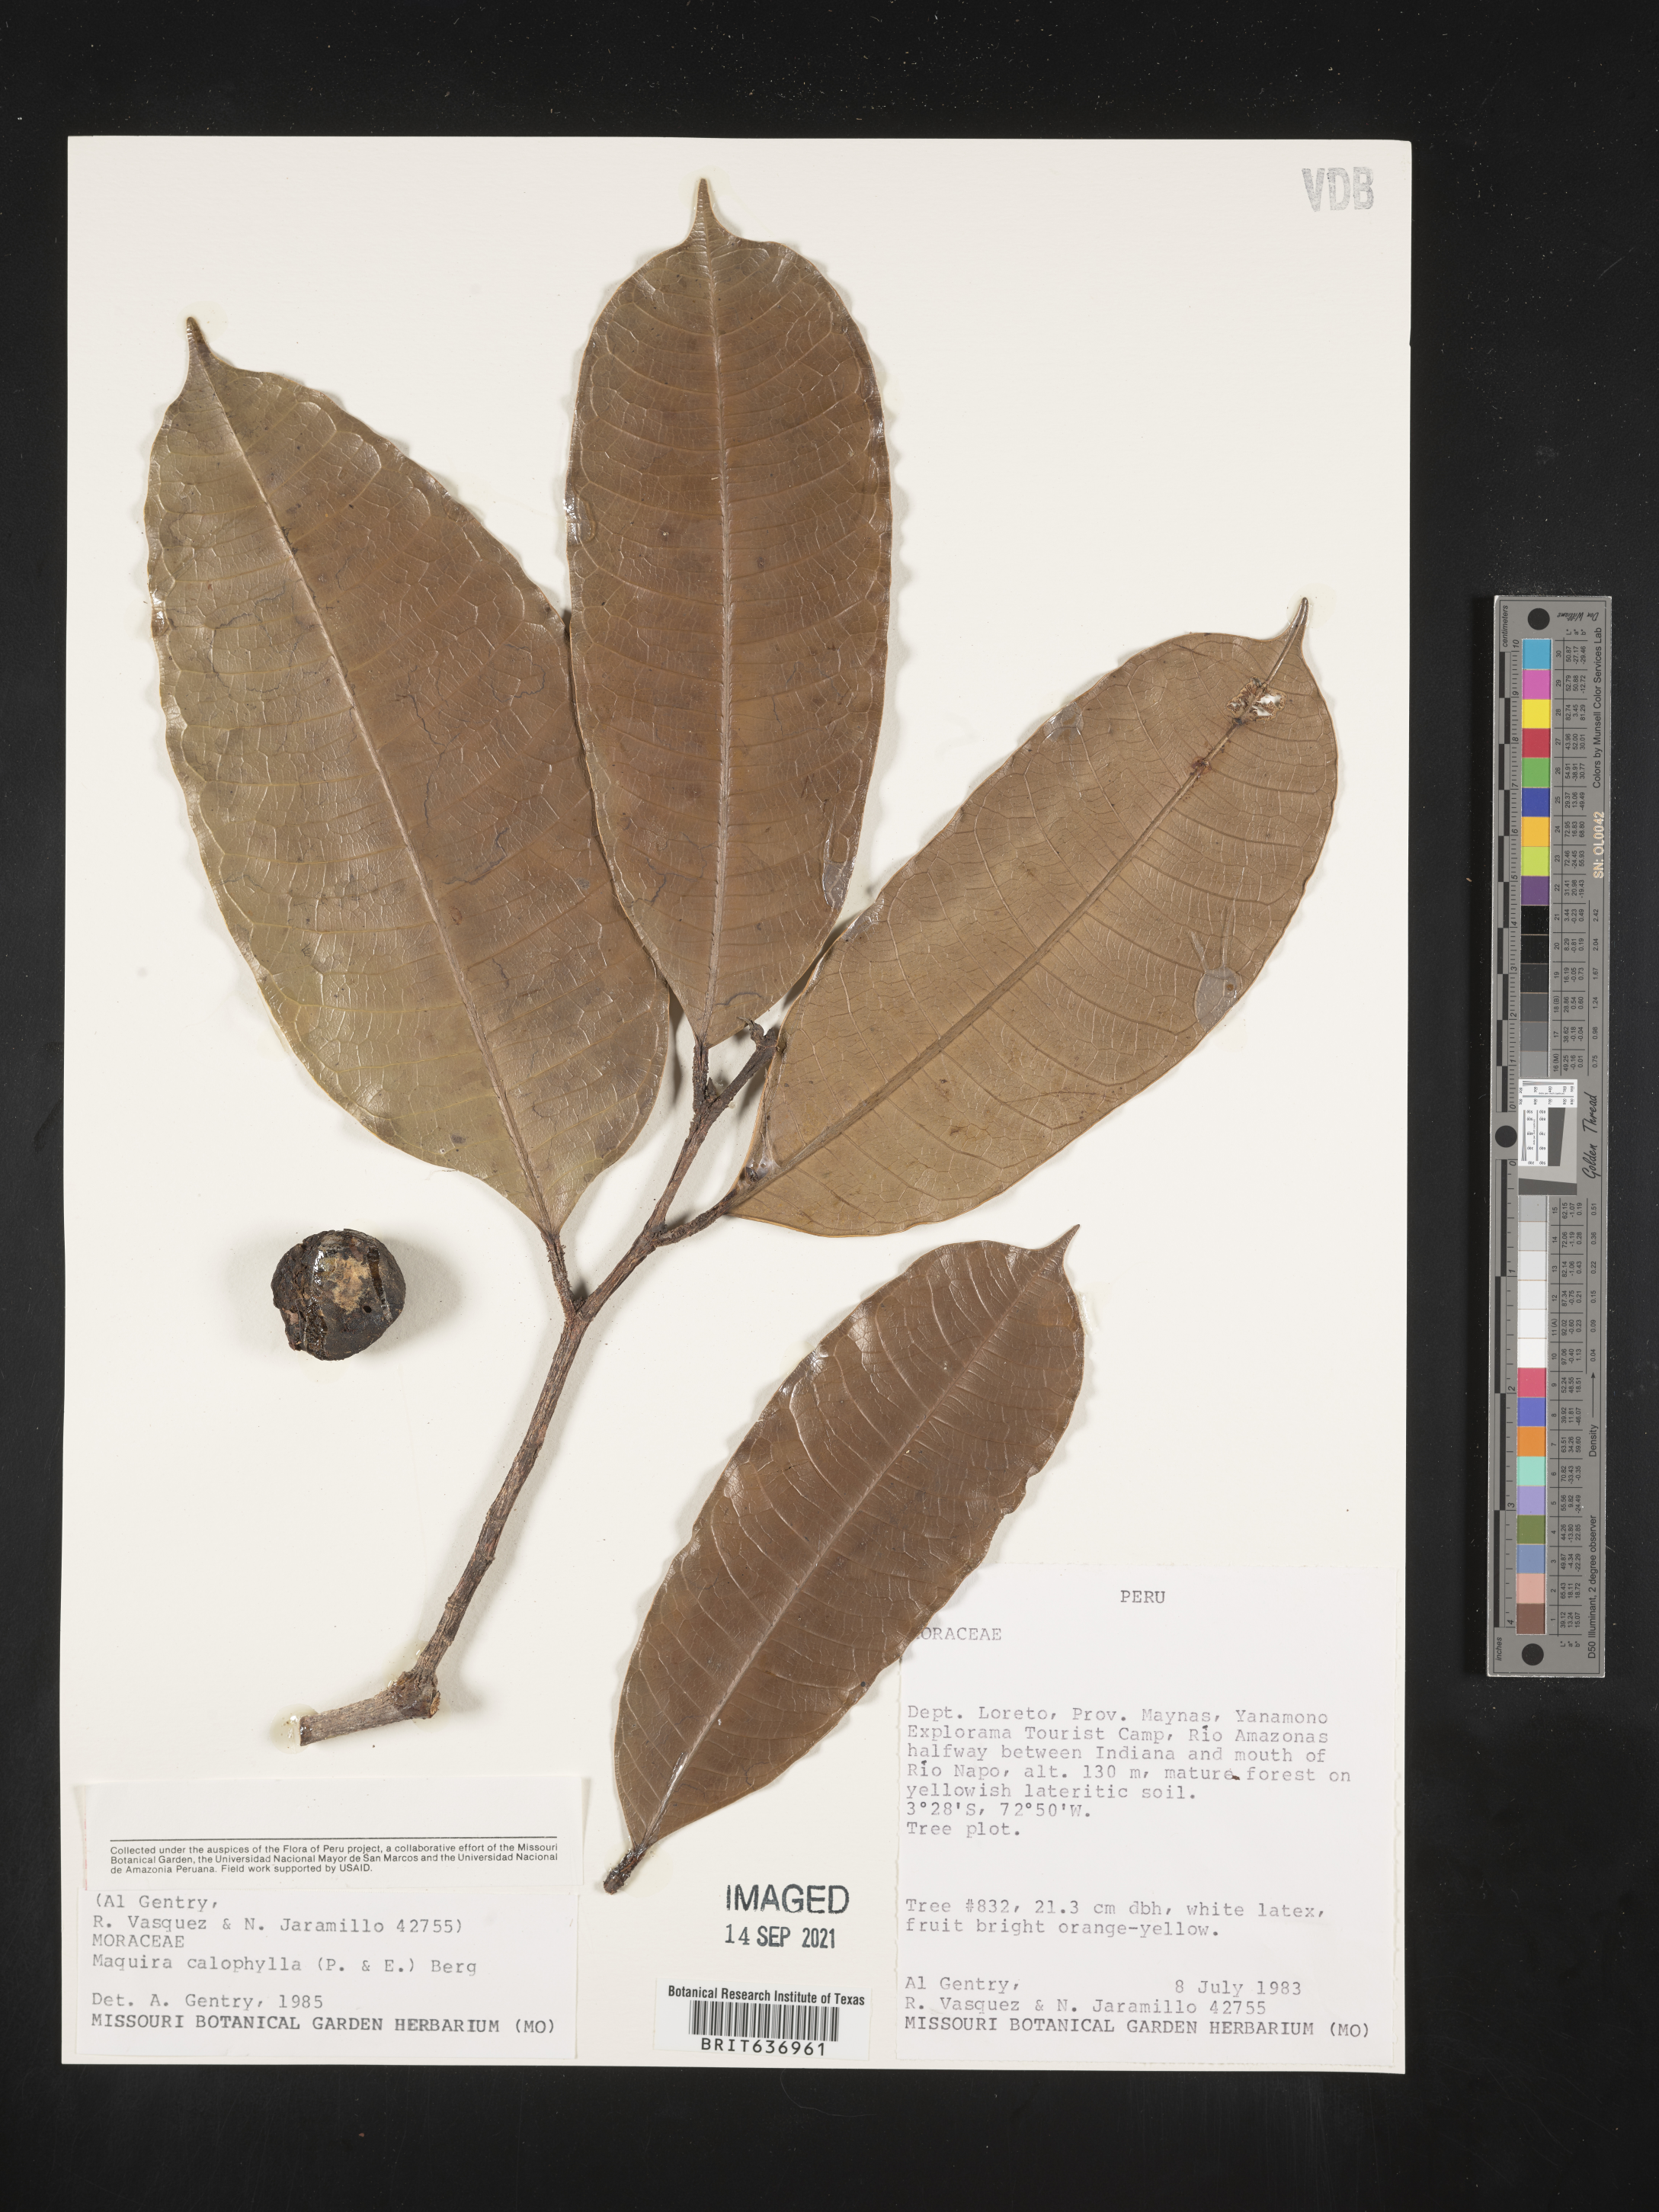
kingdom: Plantae
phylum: Tracheophyta
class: Magnoliopsida
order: Rosales
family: Moraceae
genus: Maquira
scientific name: Maquira
